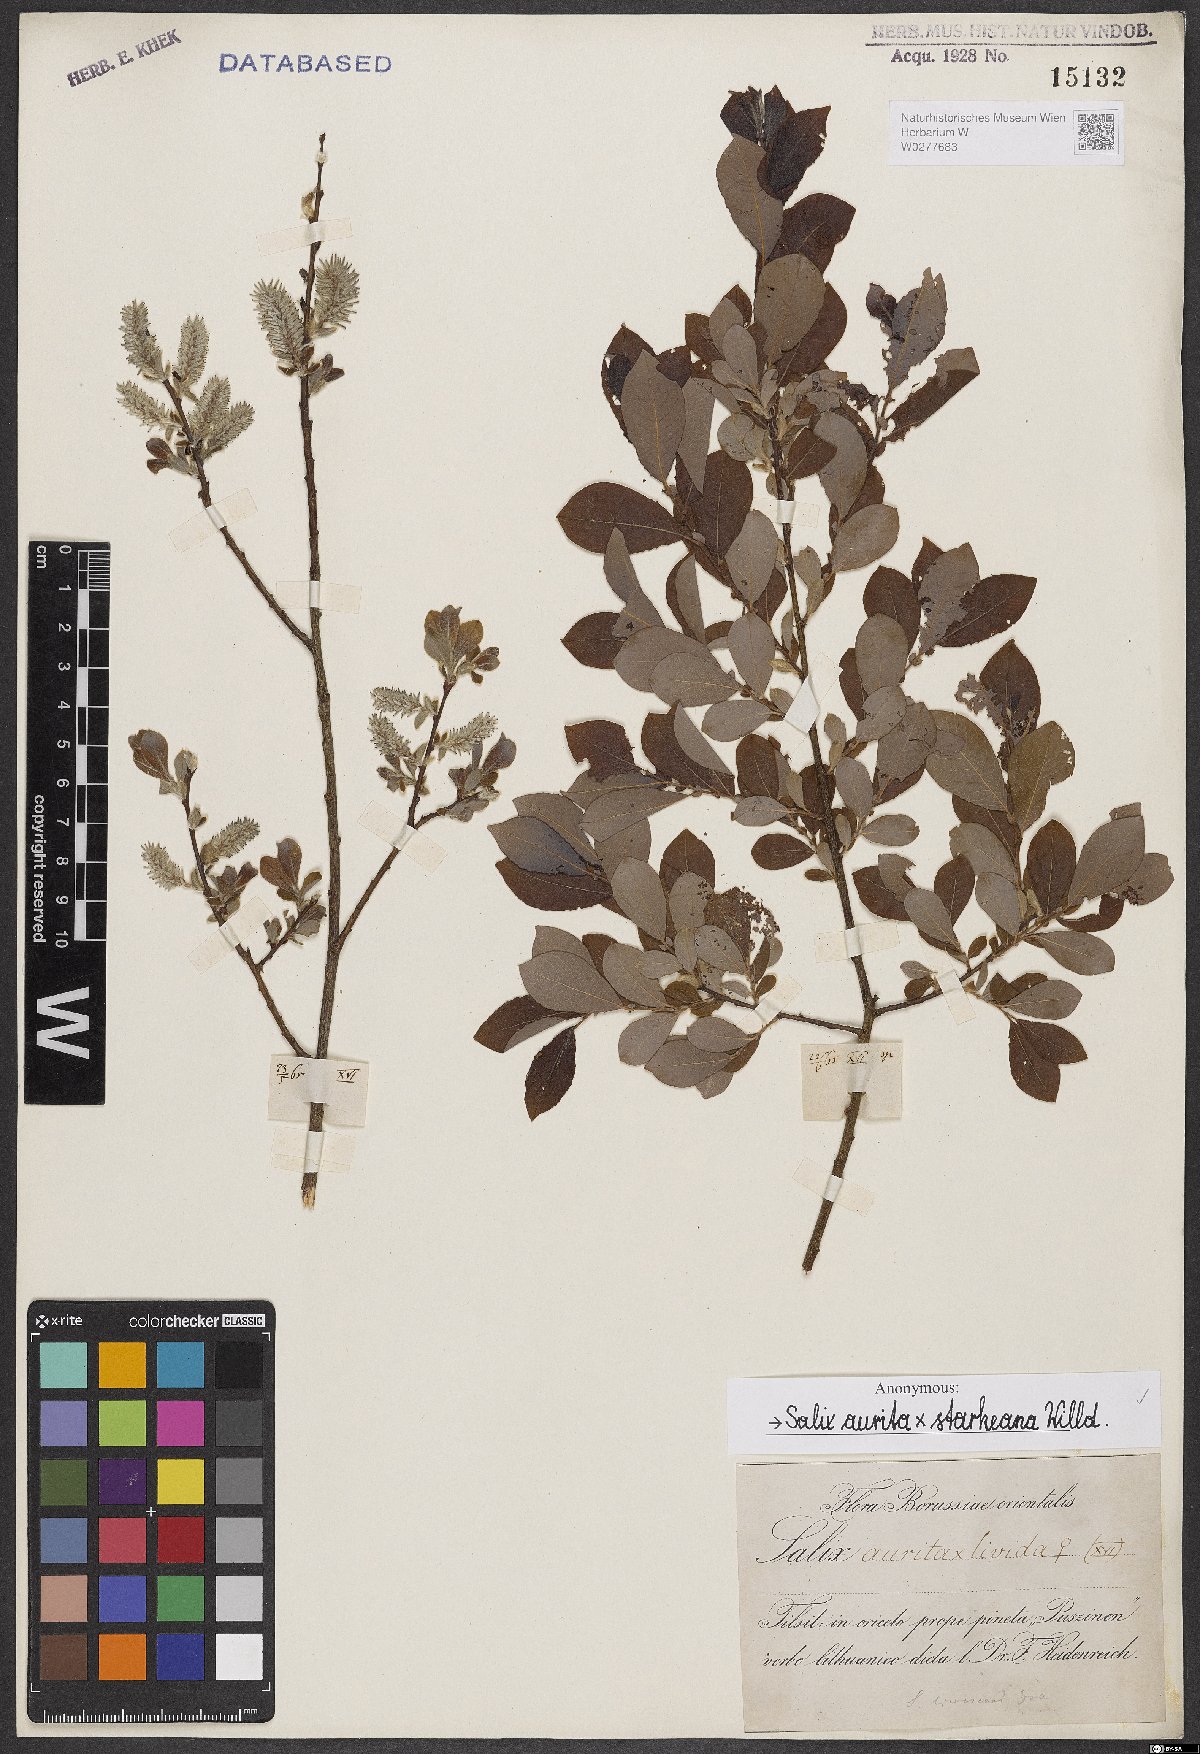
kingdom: Plantae
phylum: Tracheophyta
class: Magnoliopsida
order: Malpighiales
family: Salicaceae
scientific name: Salicaceae
